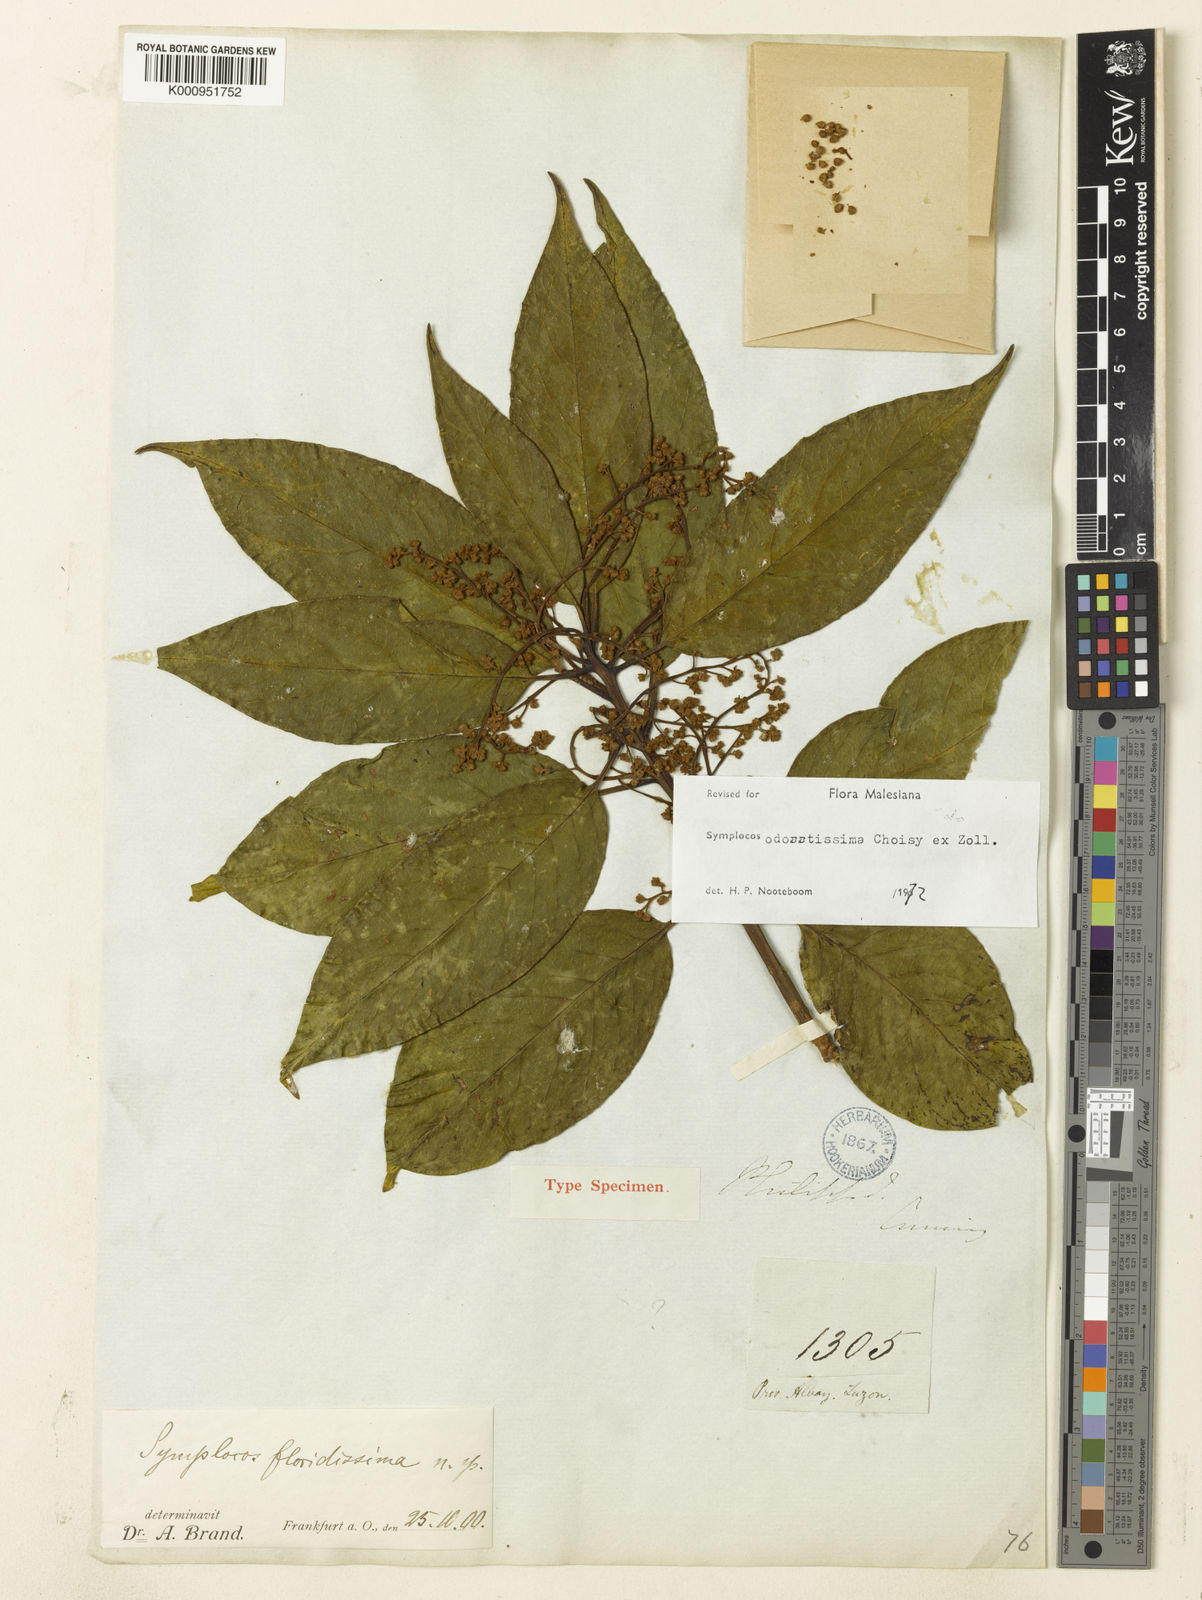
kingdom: Plantae
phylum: Tracheophyta
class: Magnoliopsida
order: Ericales
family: Symplocaceae
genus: Symplocos
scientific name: Symplocos odoratissima
